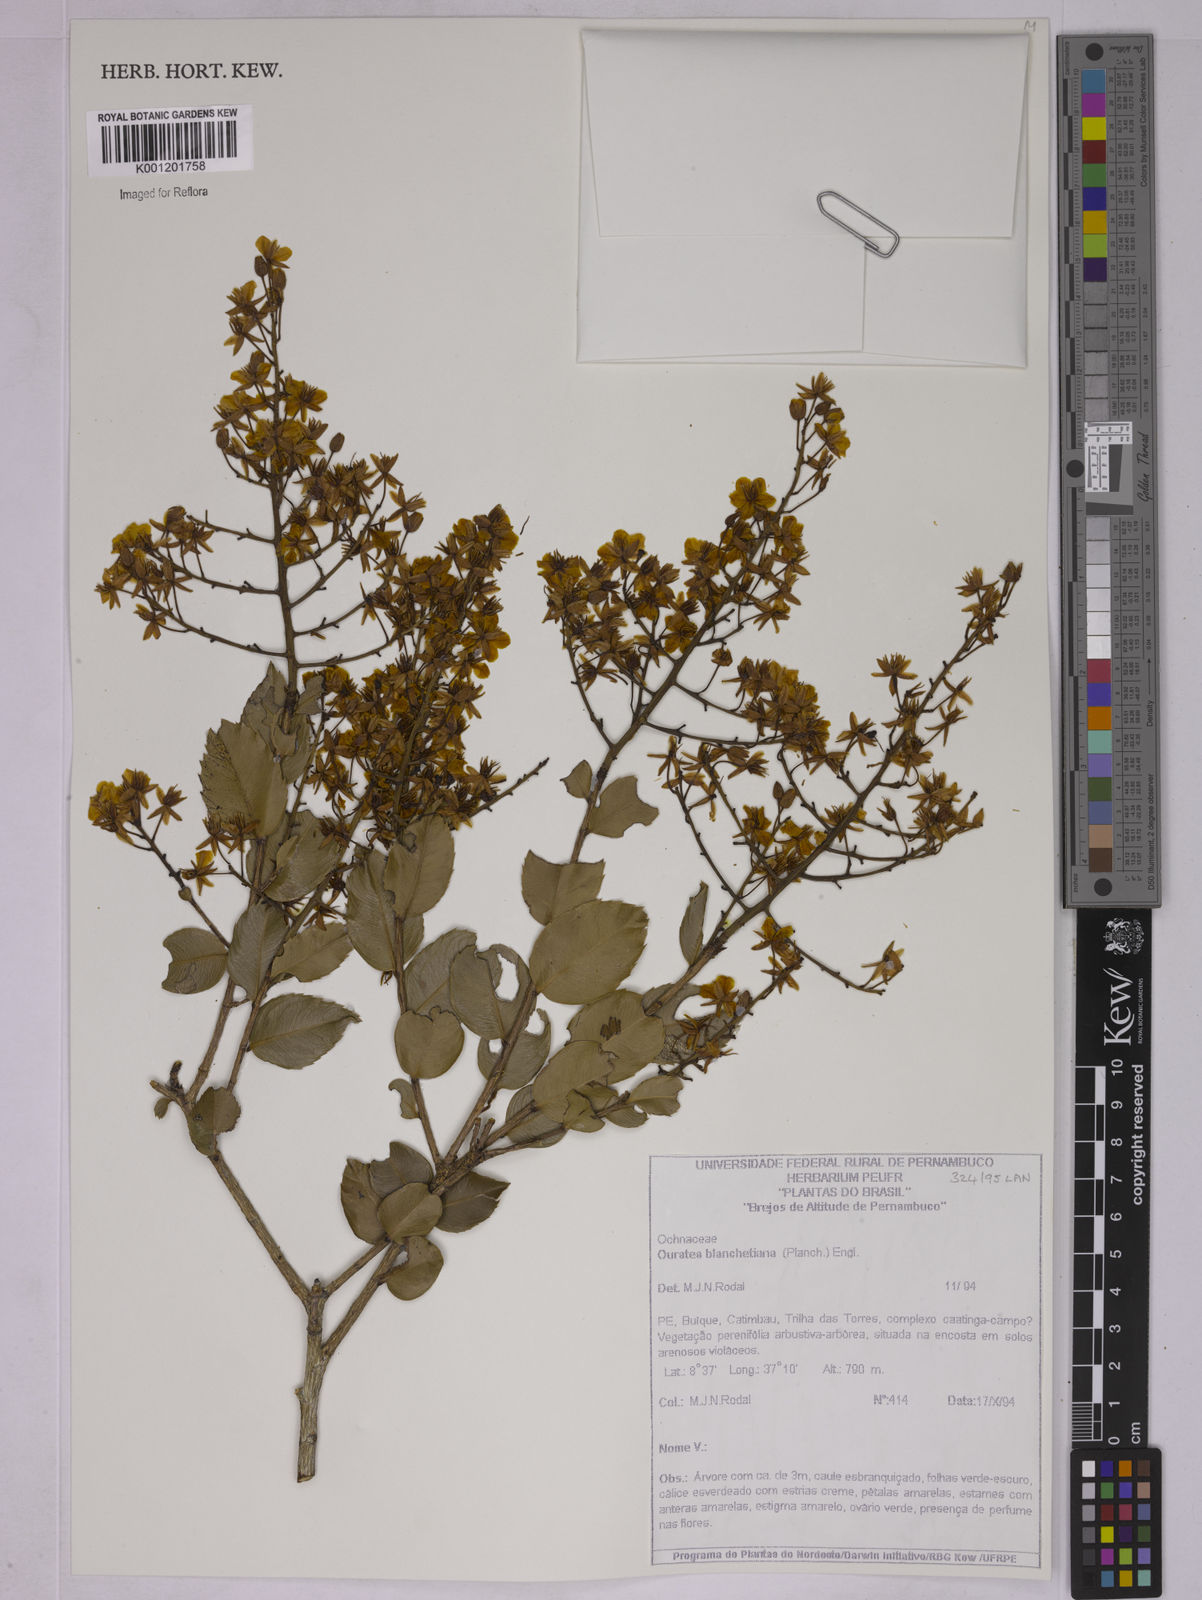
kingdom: Plantae
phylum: Tracheophyta
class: Magnoliopsida
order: Malpighiales
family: Ochnaceae
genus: Ouratea
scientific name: Ouratea blanchetiana
